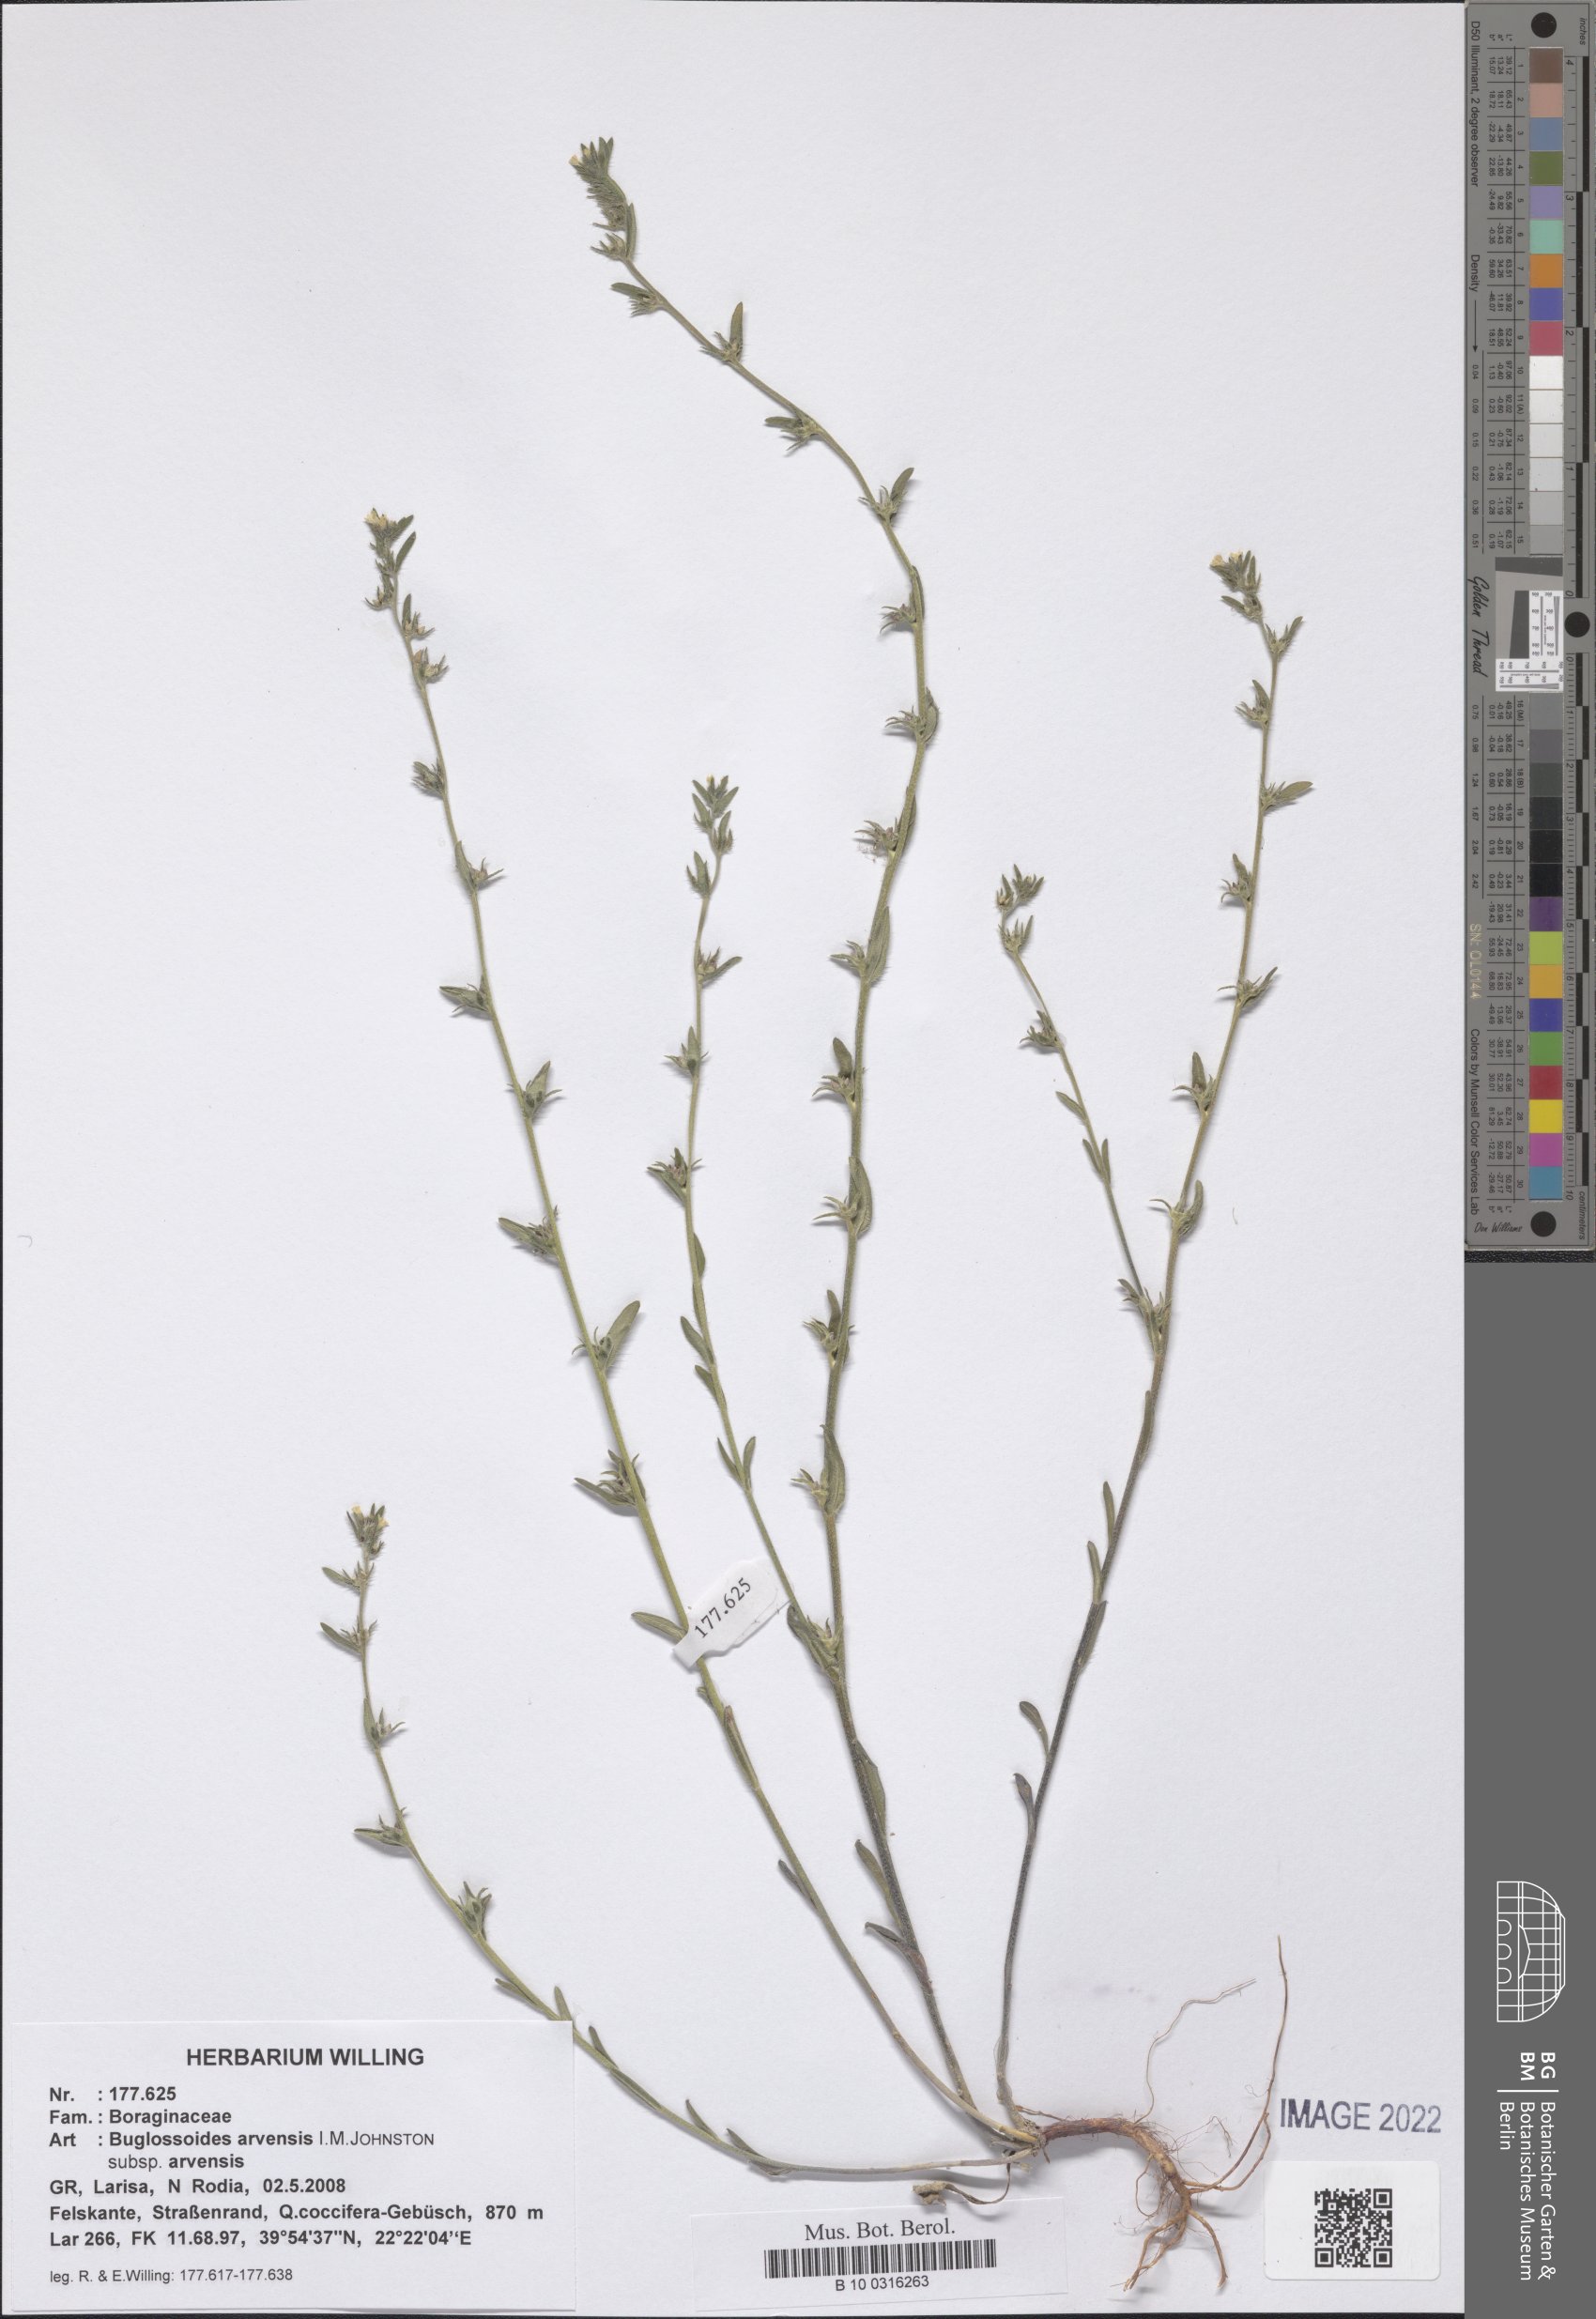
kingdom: Plantae
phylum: Tracheophyta
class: Magnoliopsida
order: Boraginales
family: Boraginaceae
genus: Buglossoides
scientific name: Buglossoides arvensis
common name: Corn gromwell
